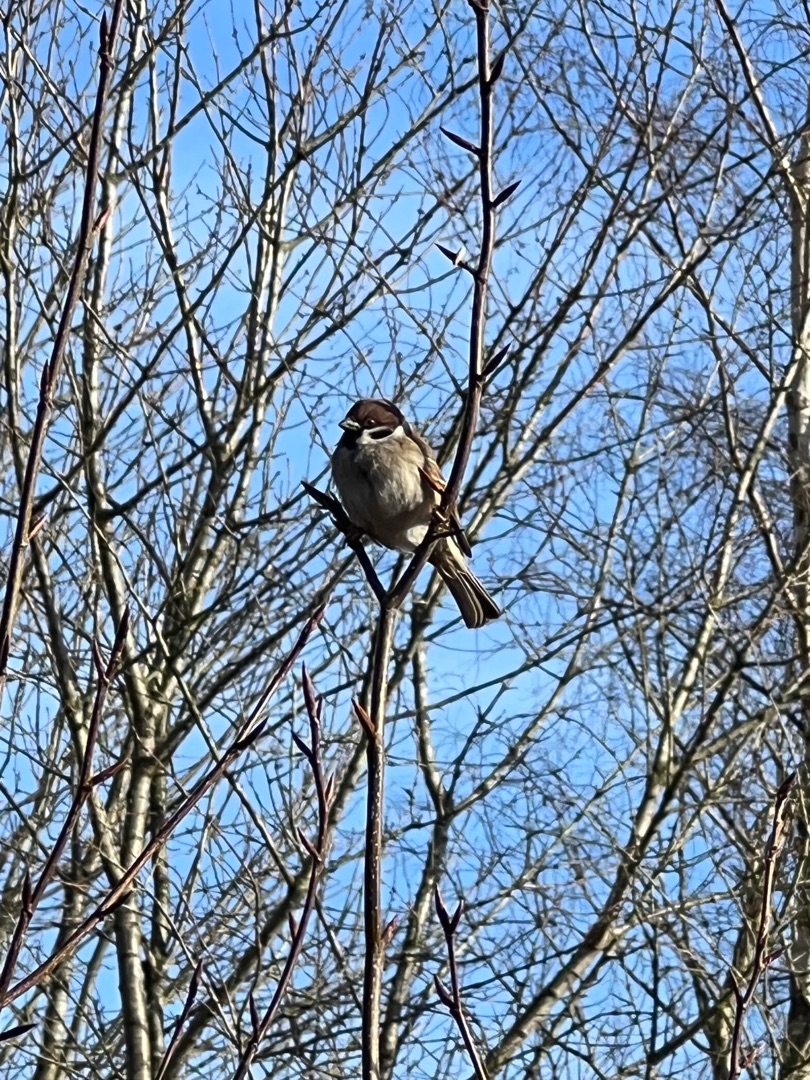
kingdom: Animalia
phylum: Chordata
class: Aves
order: Passeriformes
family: Passeridae
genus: Passer
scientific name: Passer montanus
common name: Skovspurv
